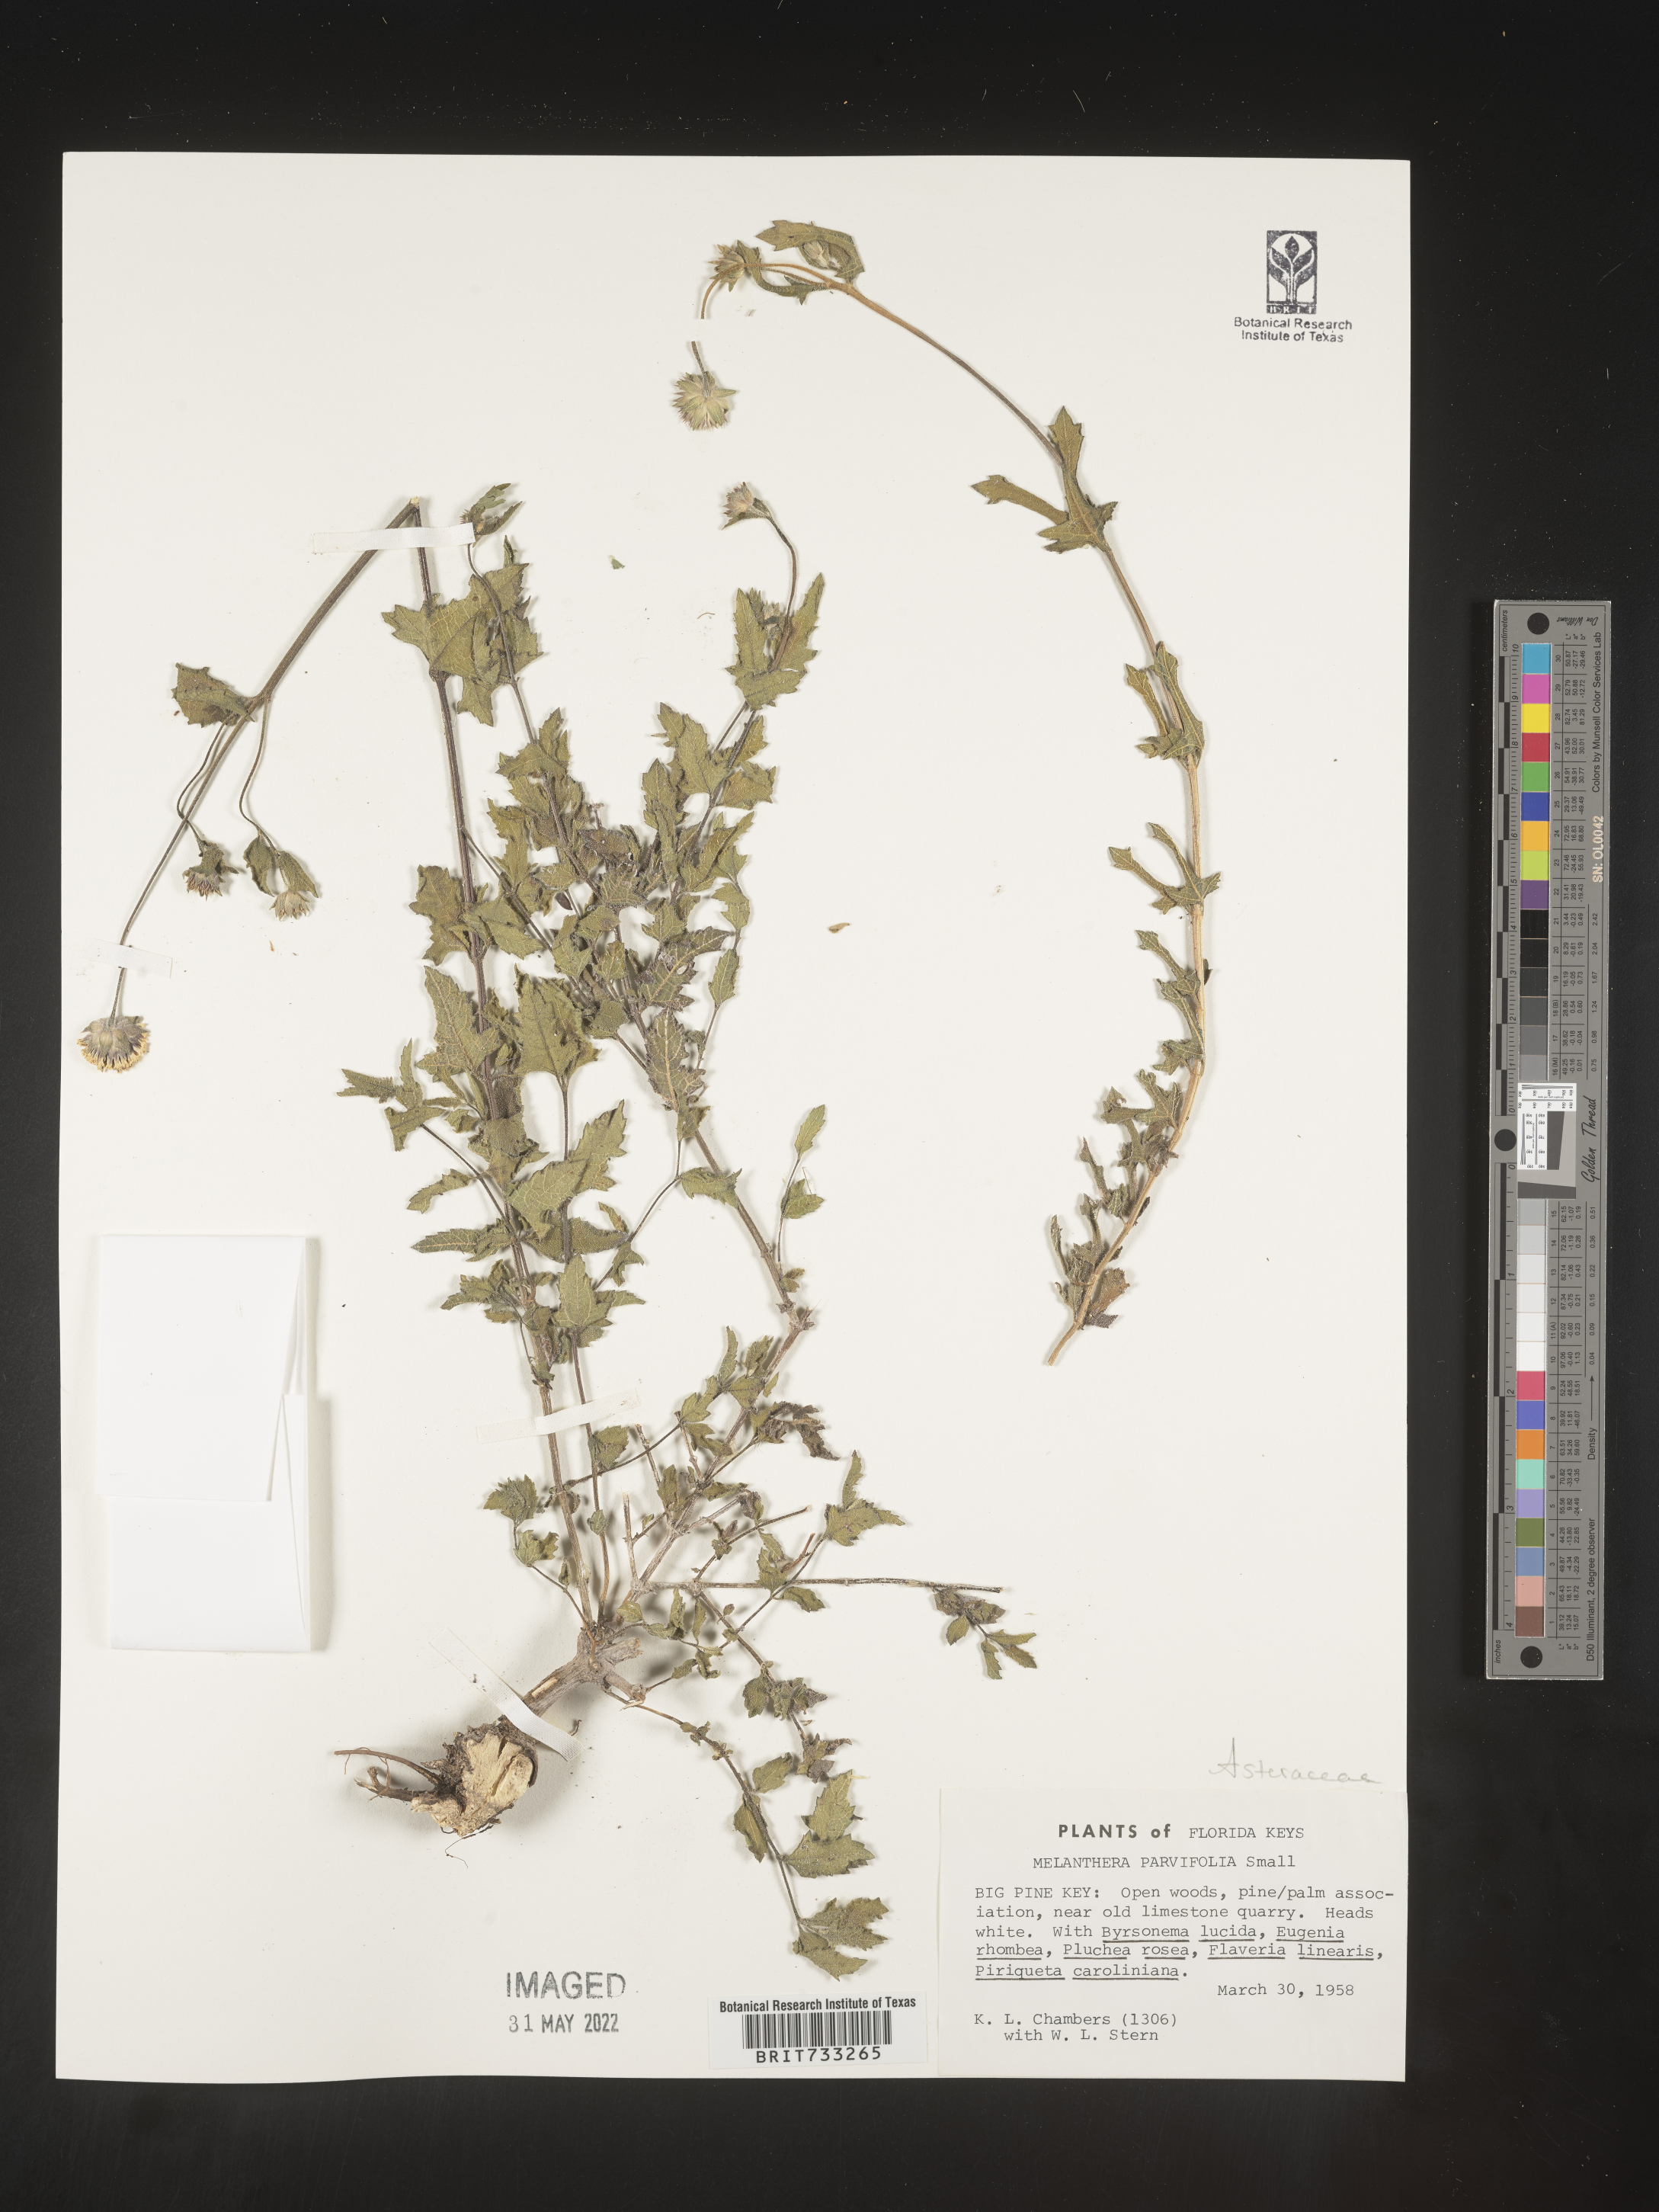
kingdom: Plantae
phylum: Tracheophyta
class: Magnoliopsida
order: Asterales
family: Asteraceae
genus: Melanthera
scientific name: Melanthera parvifolia
